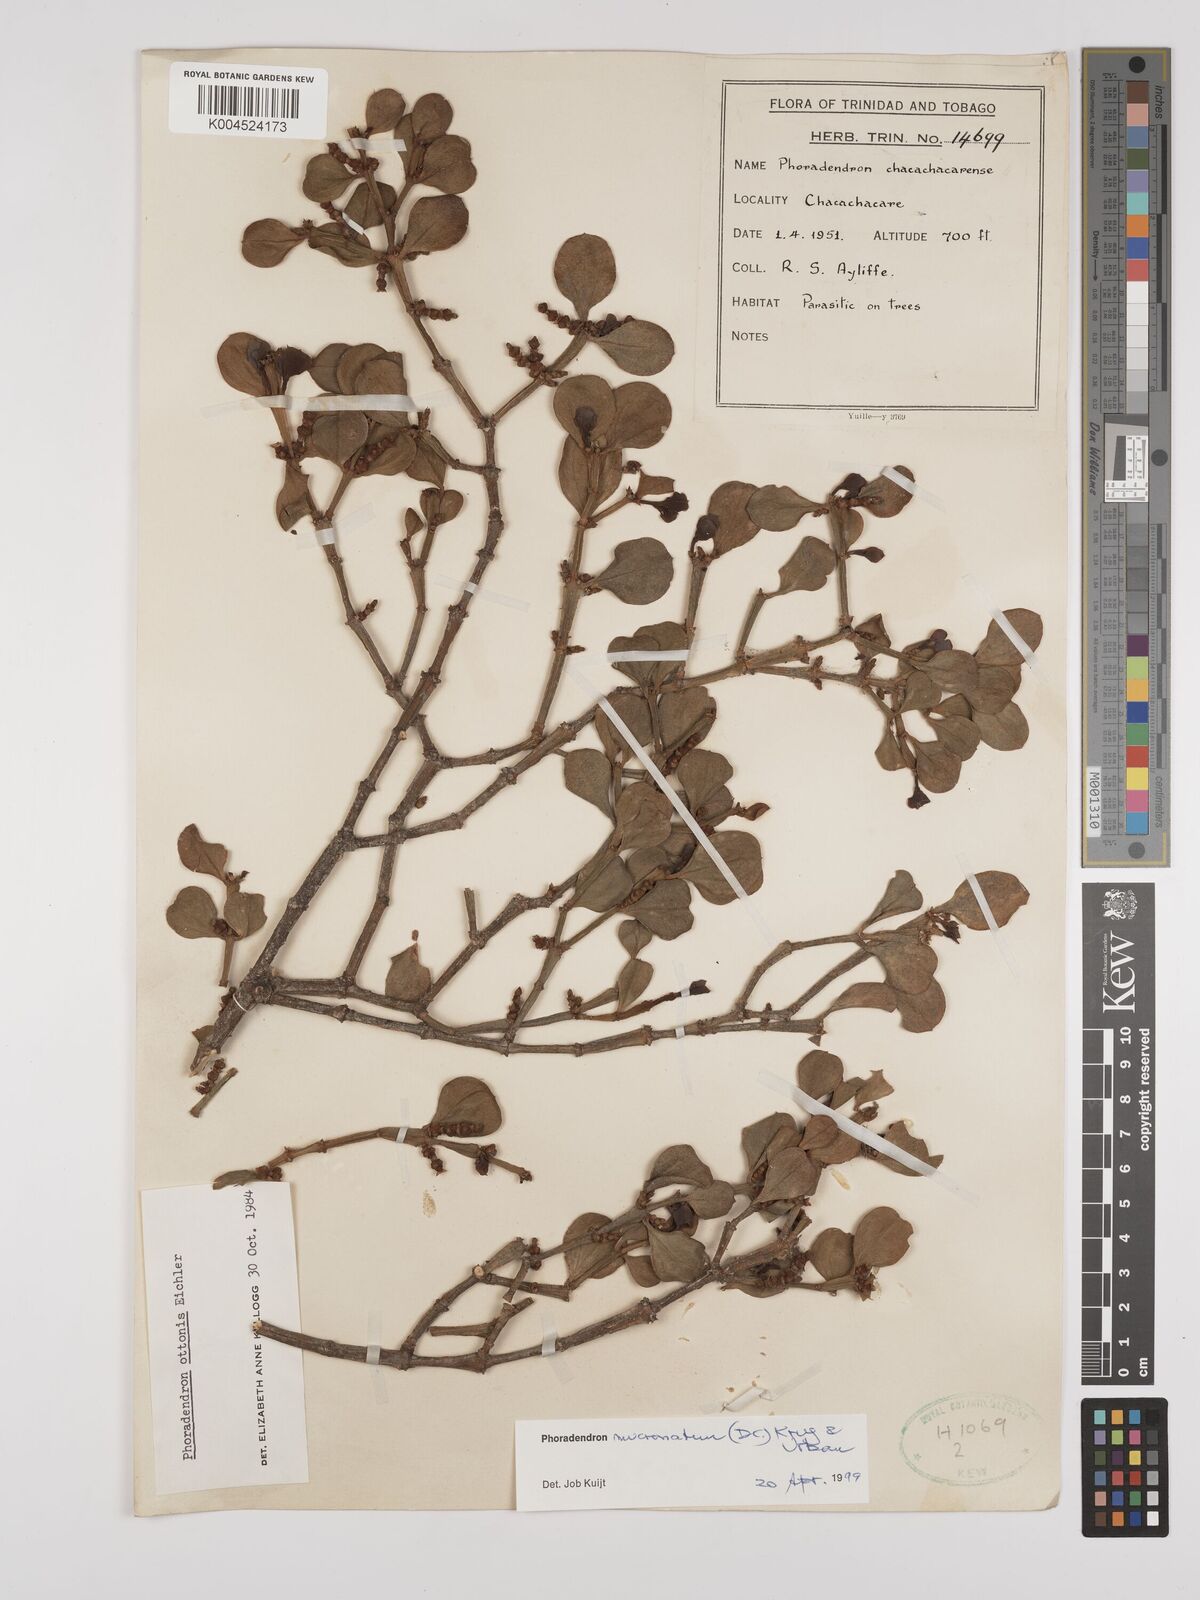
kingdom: Plantae
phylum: Tracheophyta
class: Magnoliopsida
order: Santalales
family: Viscaceae
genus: Phoradendron
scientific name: Phoradendron mucronatum
